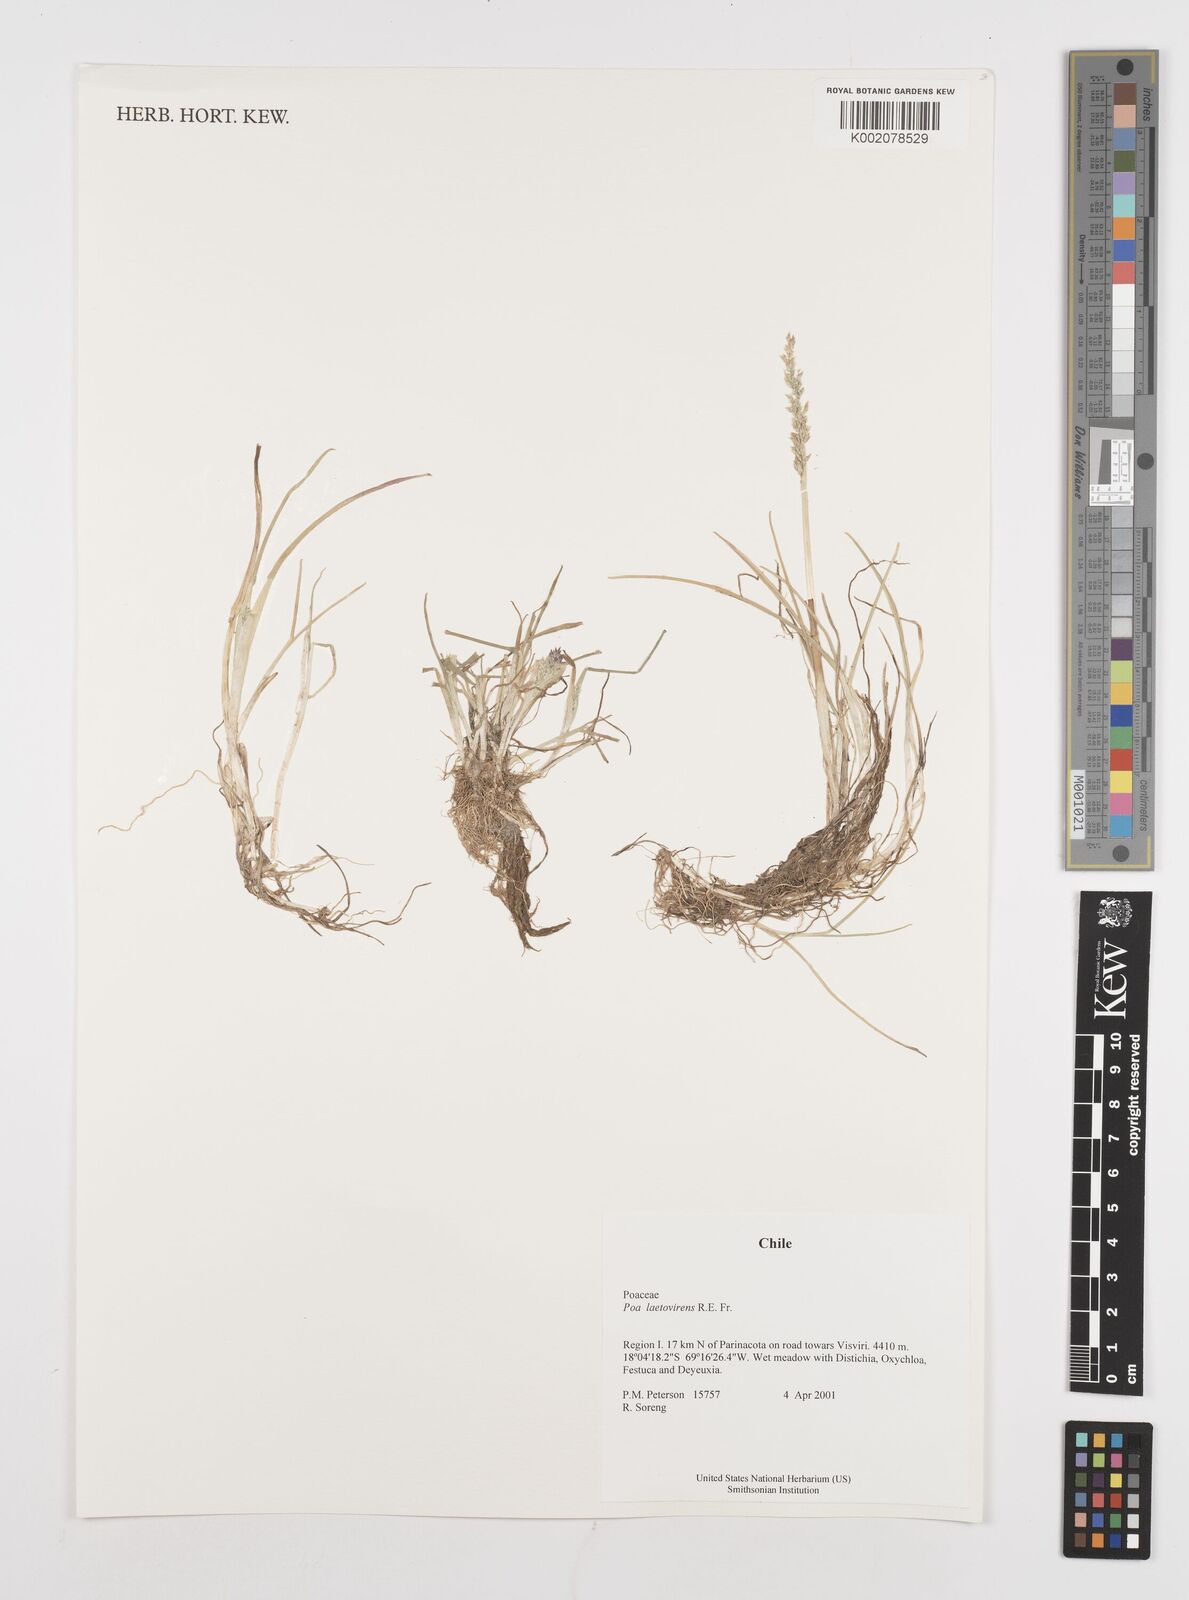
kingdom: Plantae
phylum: Tracheophyta
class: Liliopsida
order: Poales
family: Poaceae
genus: Poa
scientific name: Poa laetevirens
